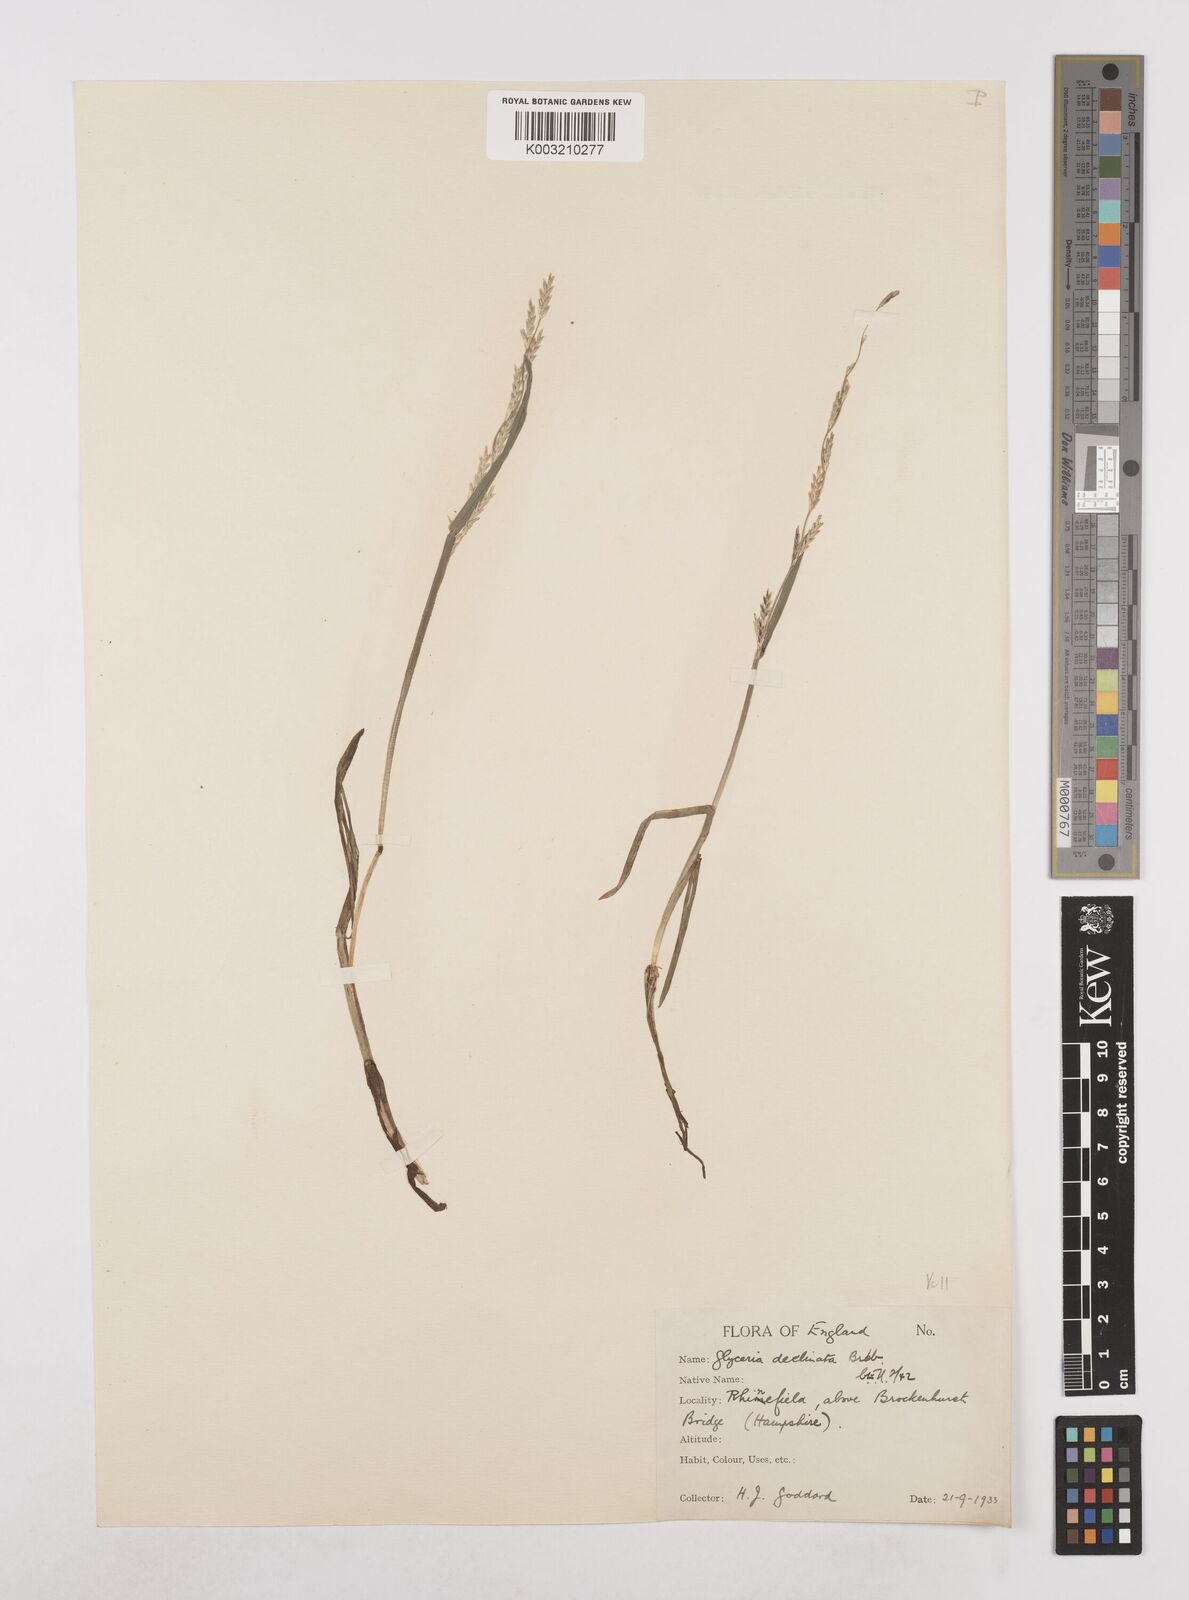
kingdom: Plantae
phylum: Tracheophyta
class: Liliopsida
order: Poales
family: Poaceae
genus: Glyceria
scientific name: Glyceria declinata
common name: Small sweet-grass
